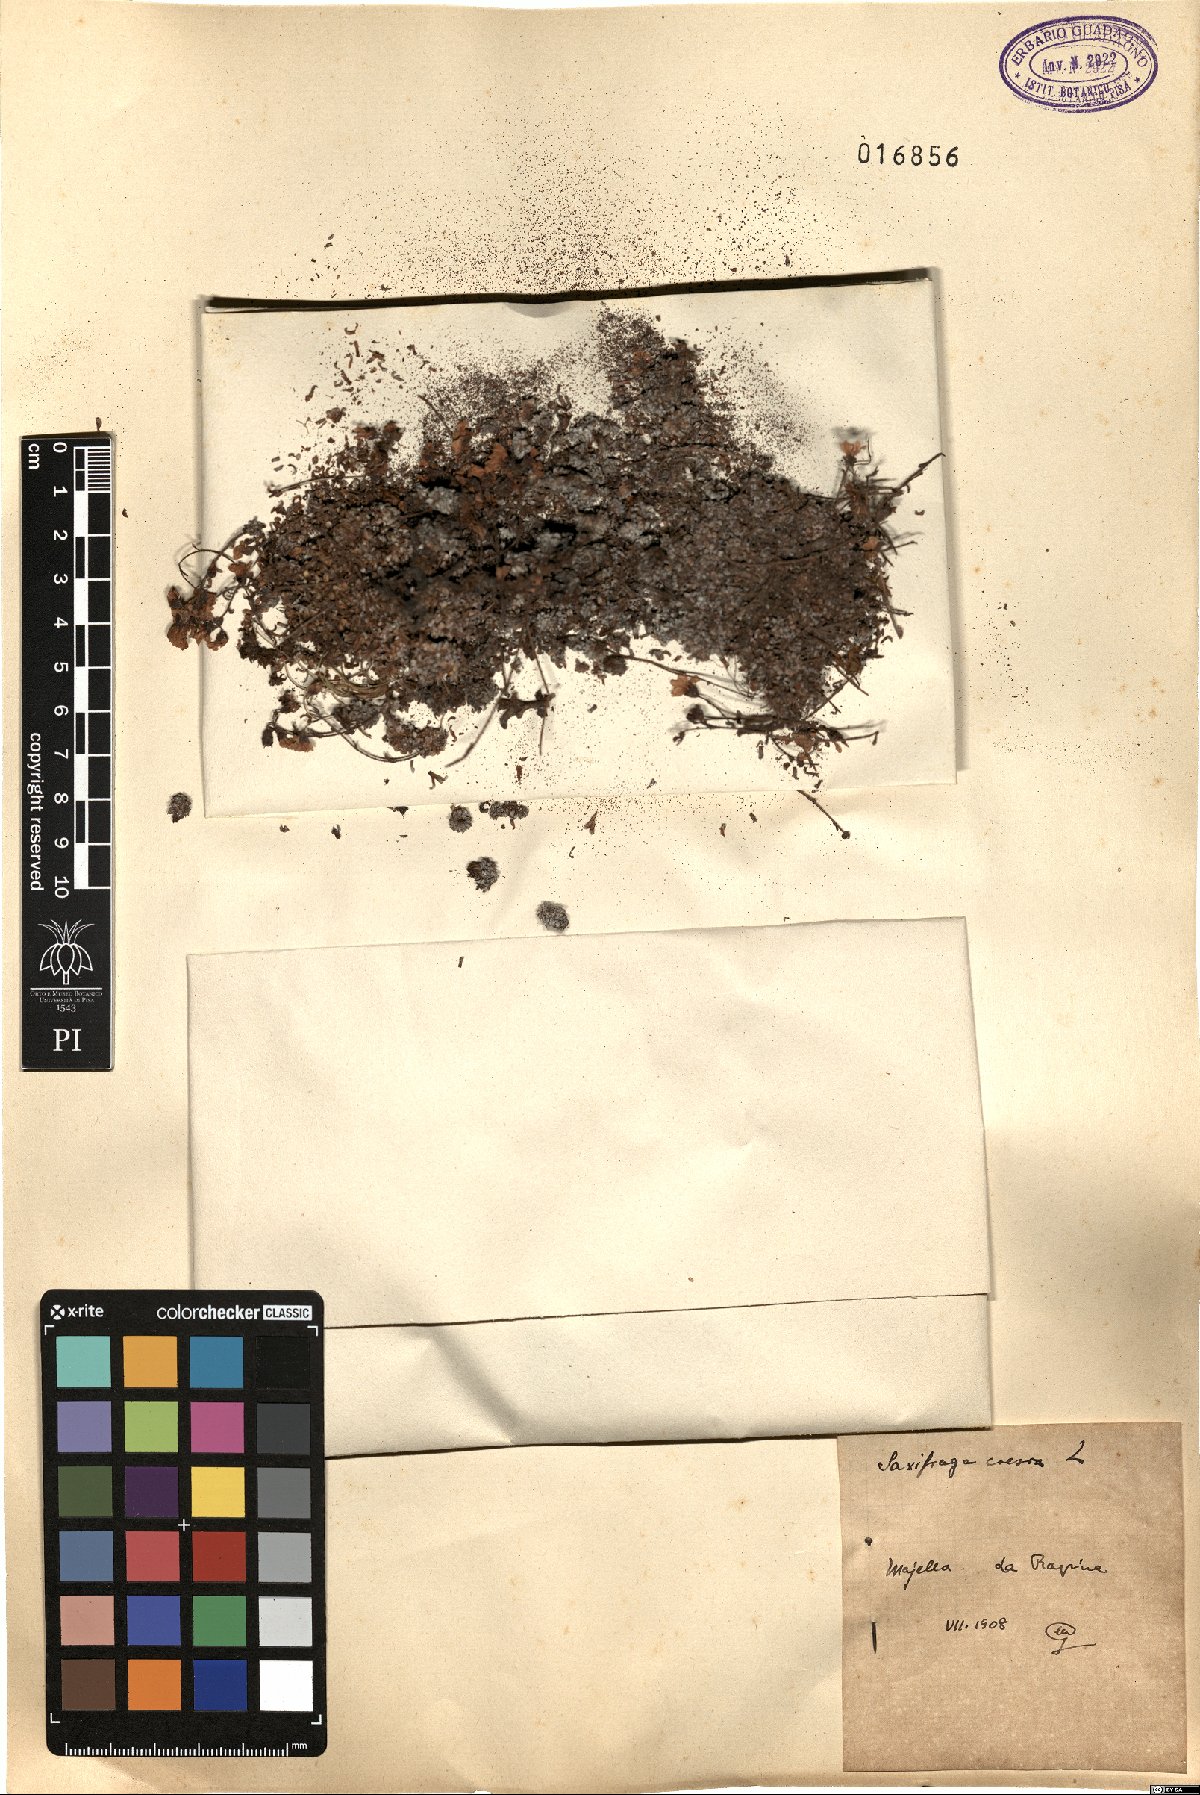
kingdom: Plantae
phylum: Tracheophyta
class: Magnoliopsida
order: Saxifragales
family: Saxifragaceae
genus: Saxifraga
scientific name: Saxifraga caesia
